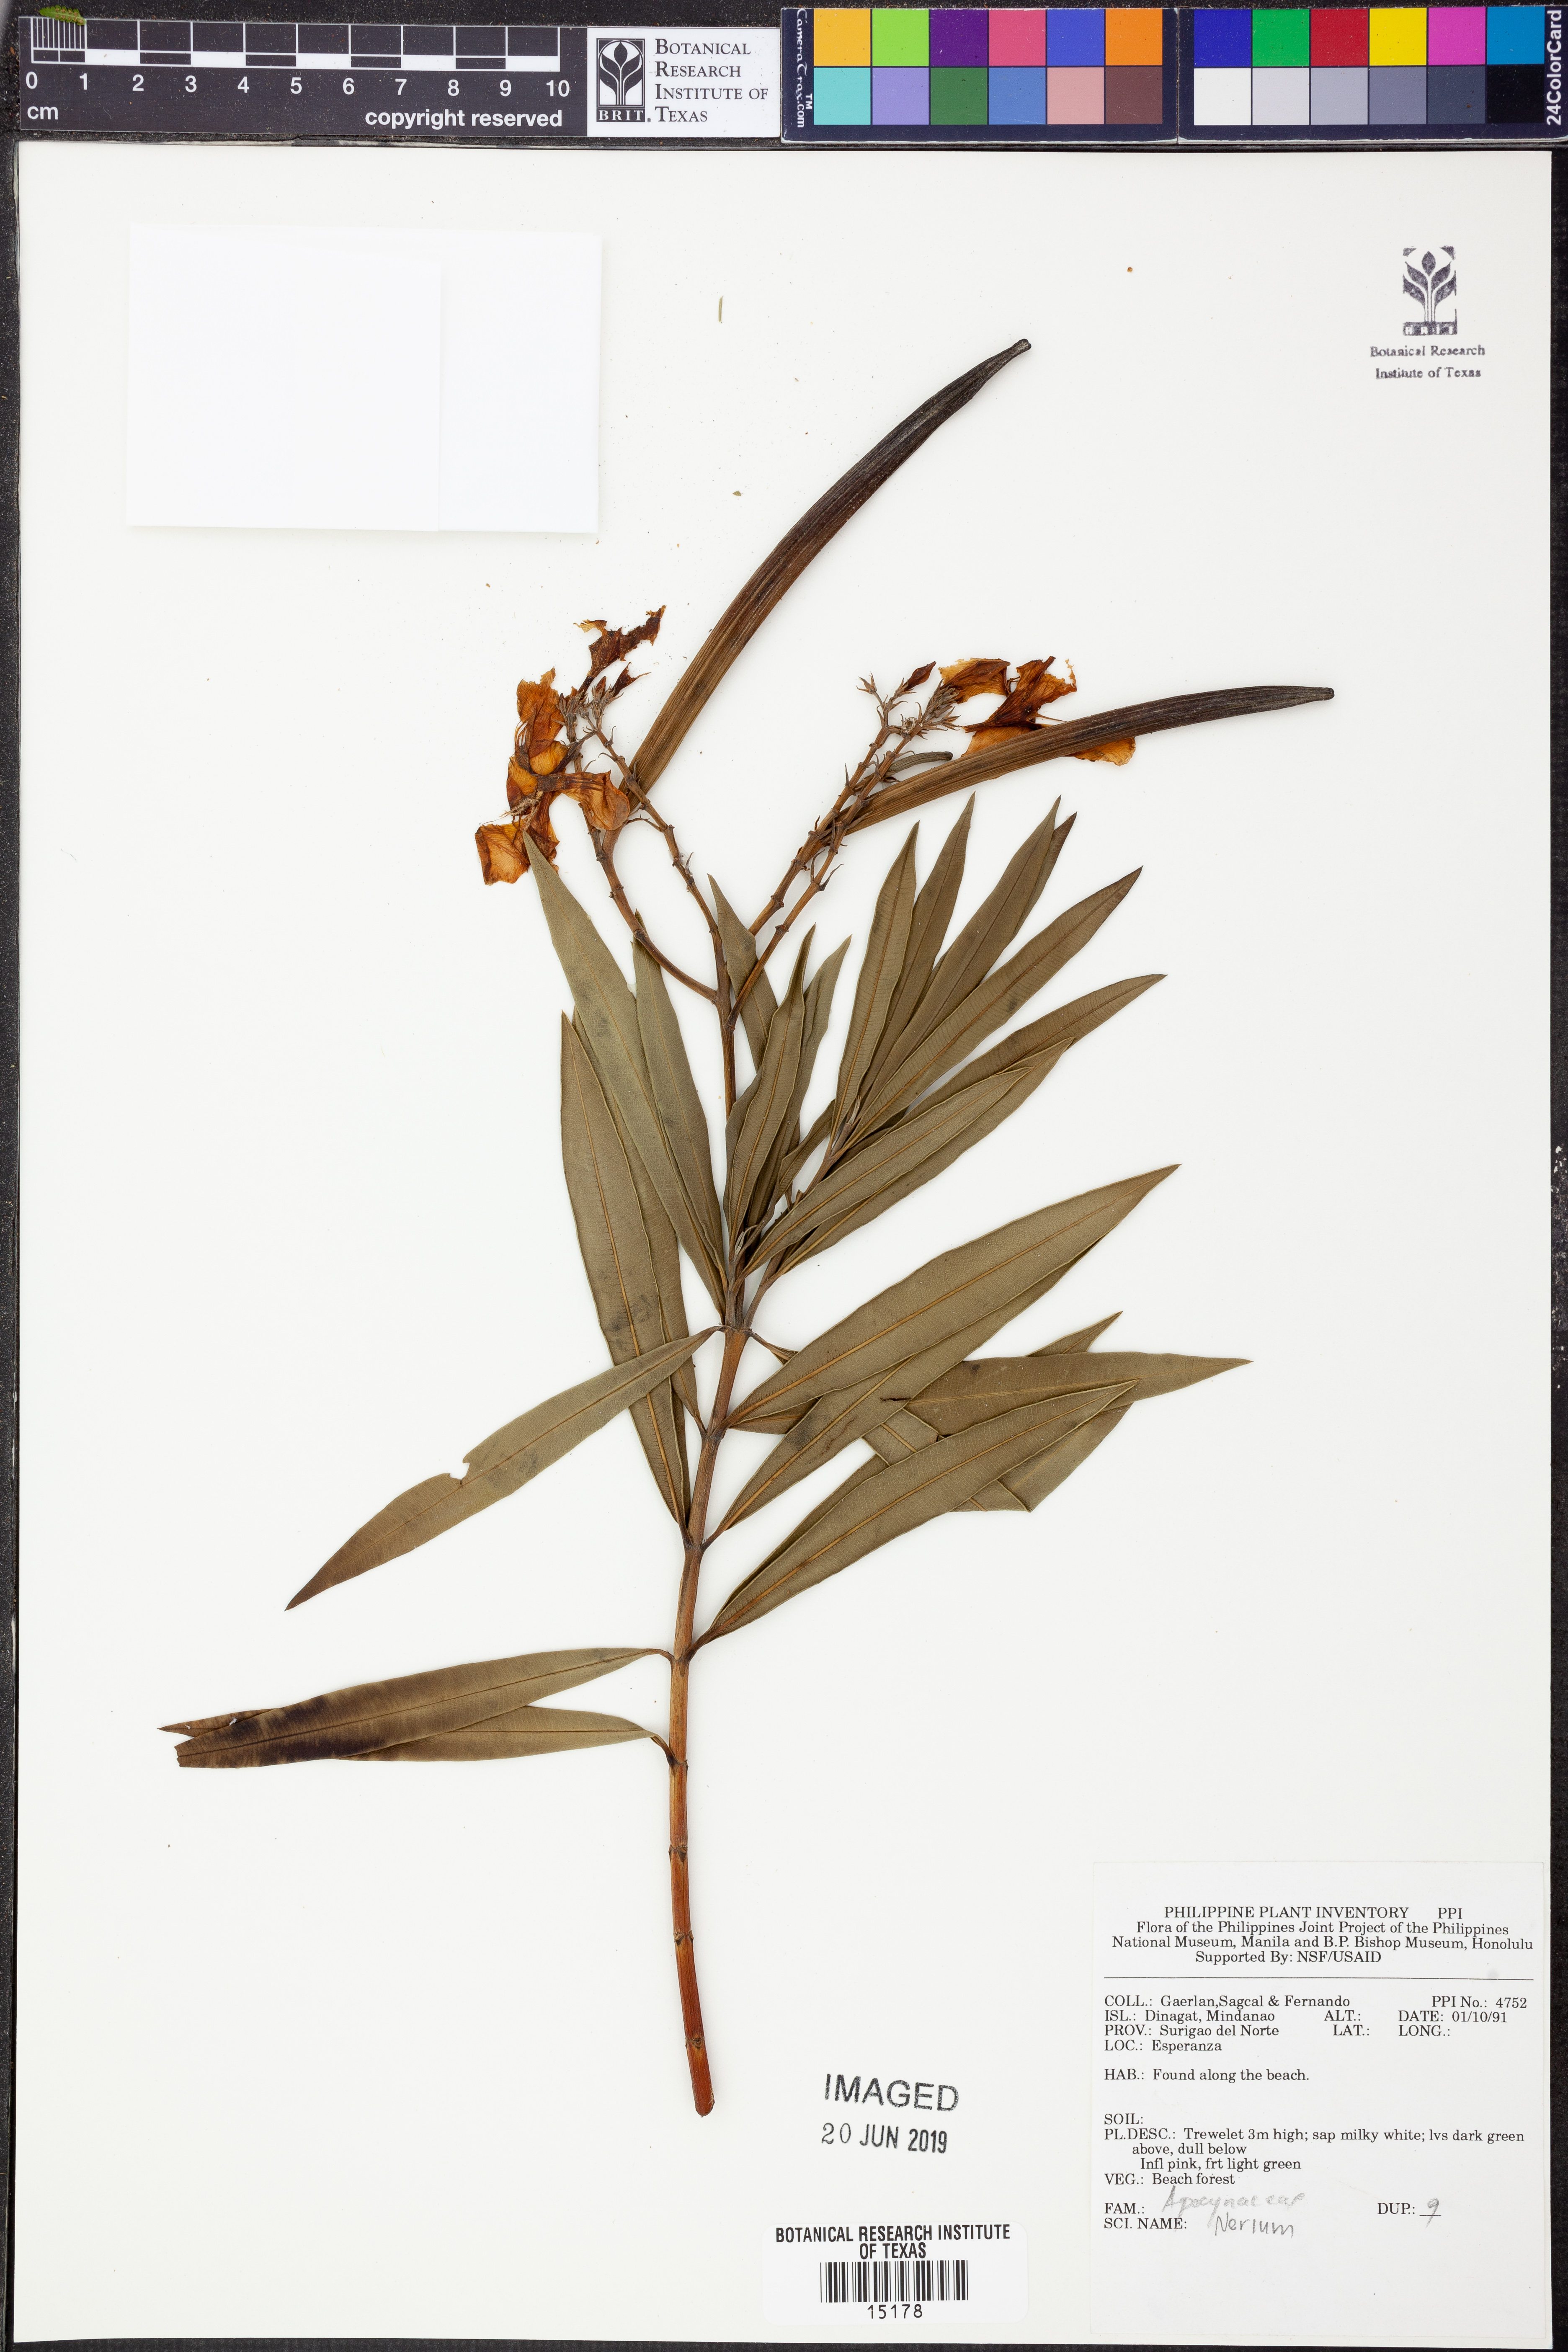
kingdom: Plantae
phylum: Tracheophyta
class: Magnoliopsida
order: Gentianales
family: Apocynaceae
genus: Nerium
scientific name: Nerium
